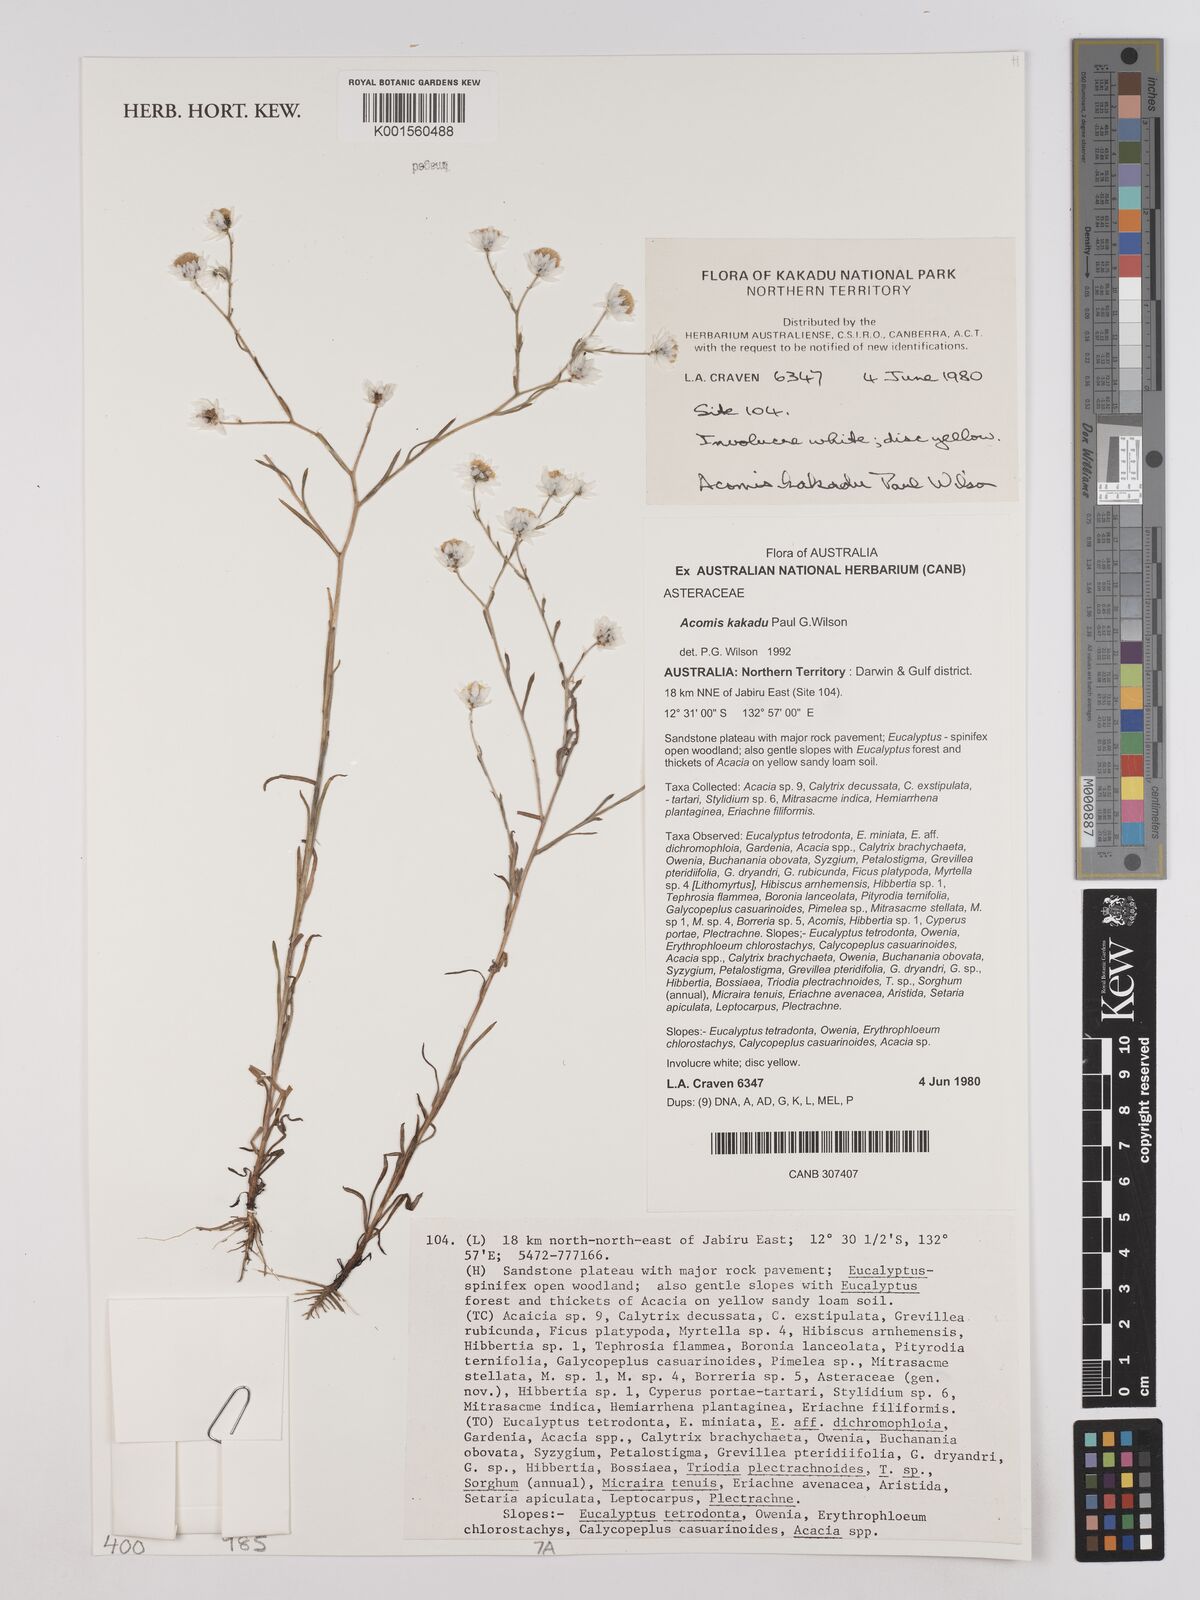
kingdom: Plantae
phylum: Tracheophyta
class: Magnoliopsida
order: Asterales
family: Asteraceae
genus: Acomis
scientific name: Acomis kakadu
